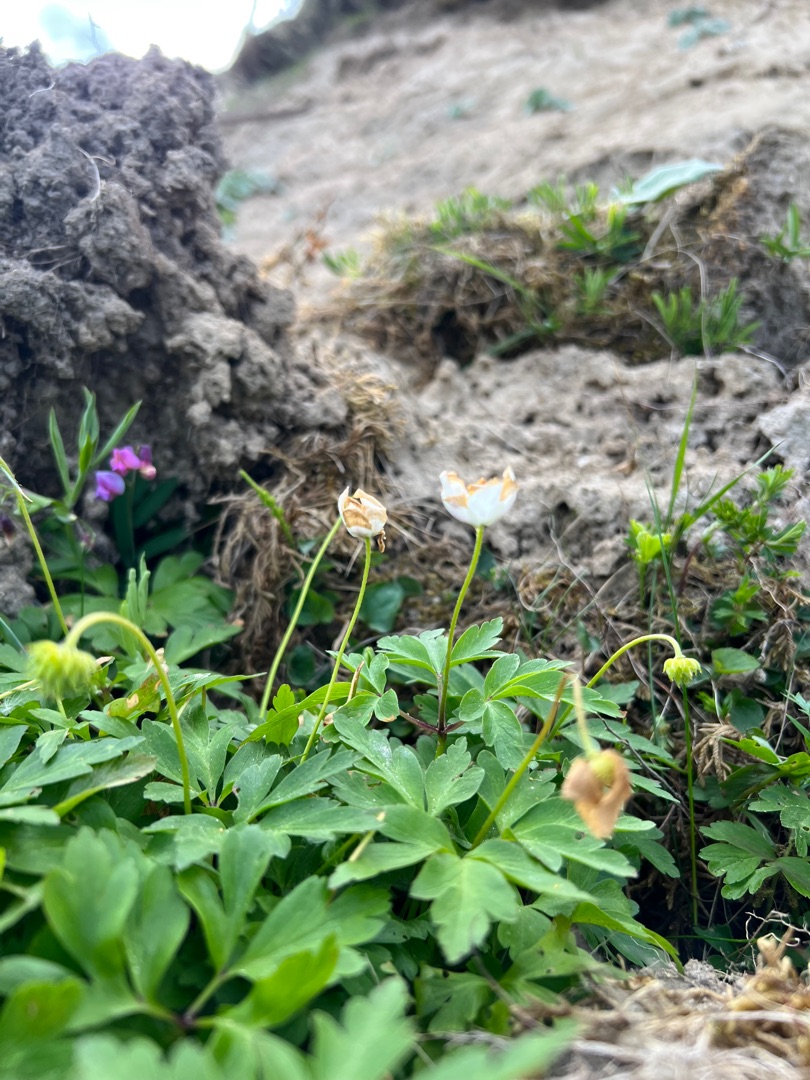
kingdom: Plantae
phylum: Tracheophyta
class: Magnoliopsida
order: Ranunculales
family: Ranunculaceae
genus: Anemone
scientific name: Anemone nemorosa
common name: Hvid anemone
